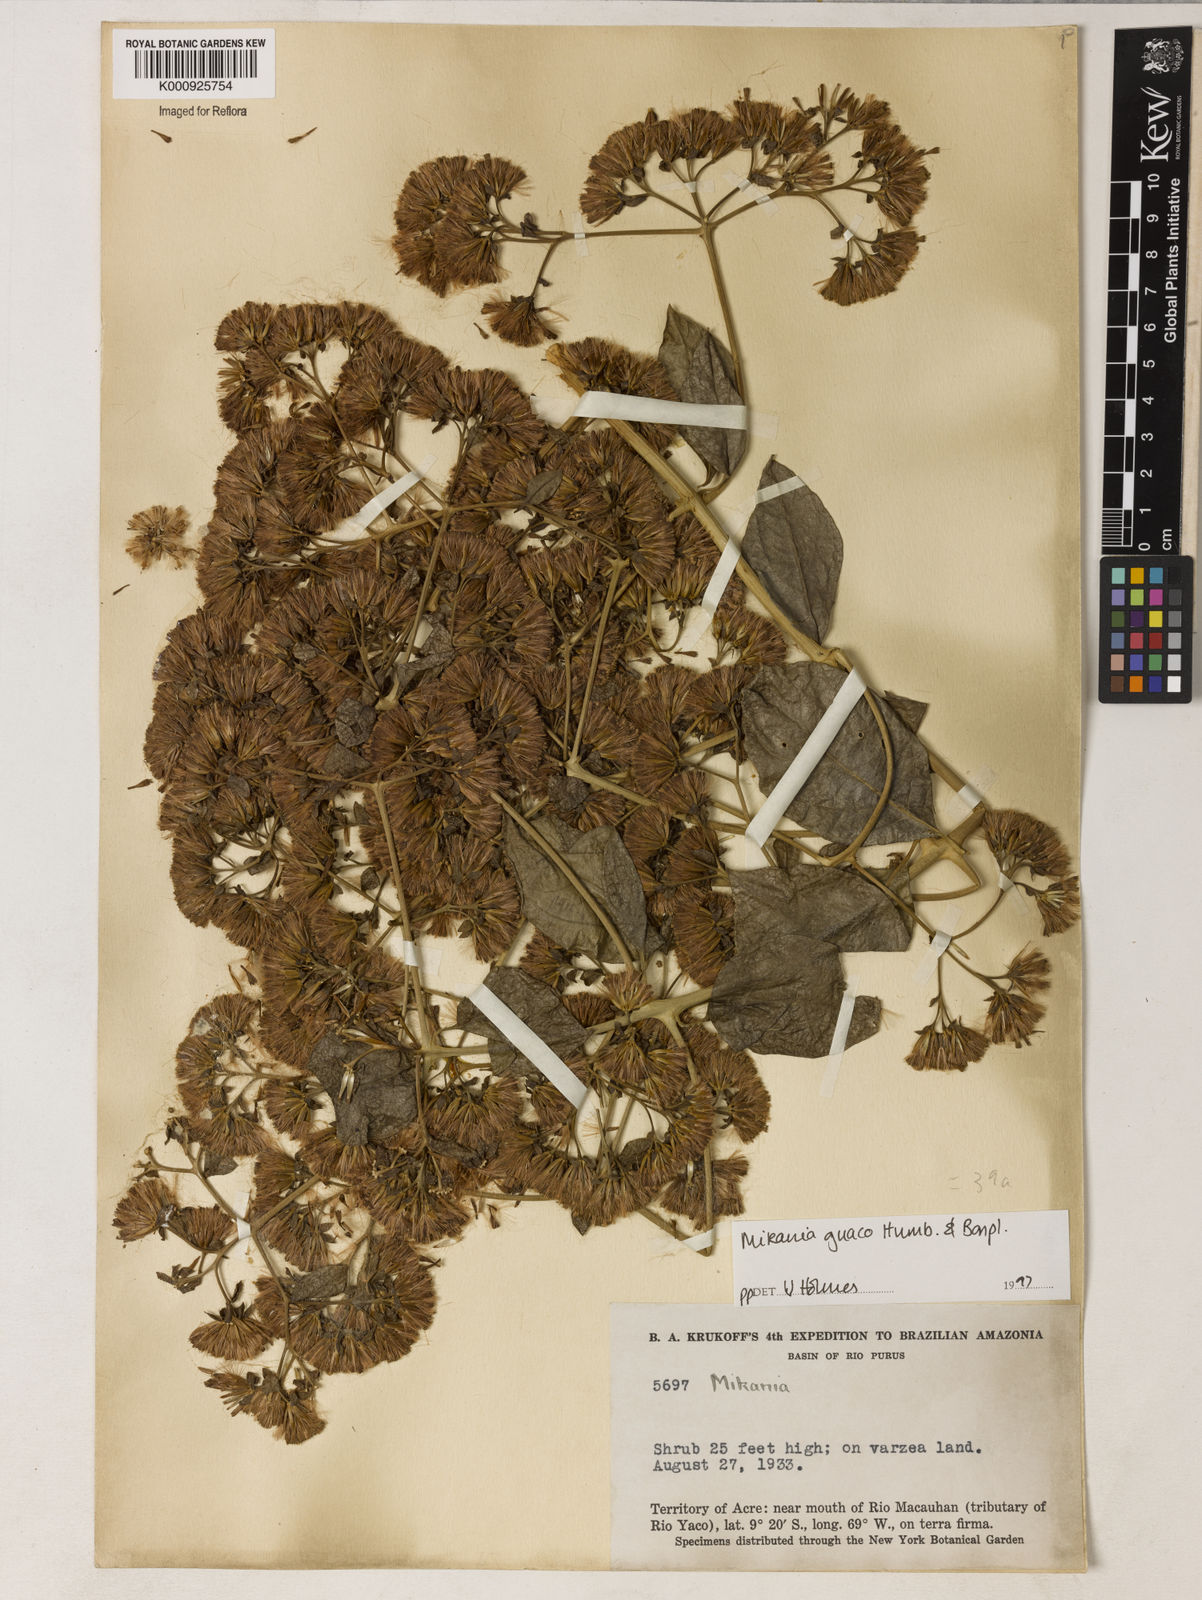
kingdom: Plantae
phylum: Tracheophyta
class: Magnoliopsida
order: Asterales
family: Asteraceae
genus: Mikania
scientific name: Mikania guaco
